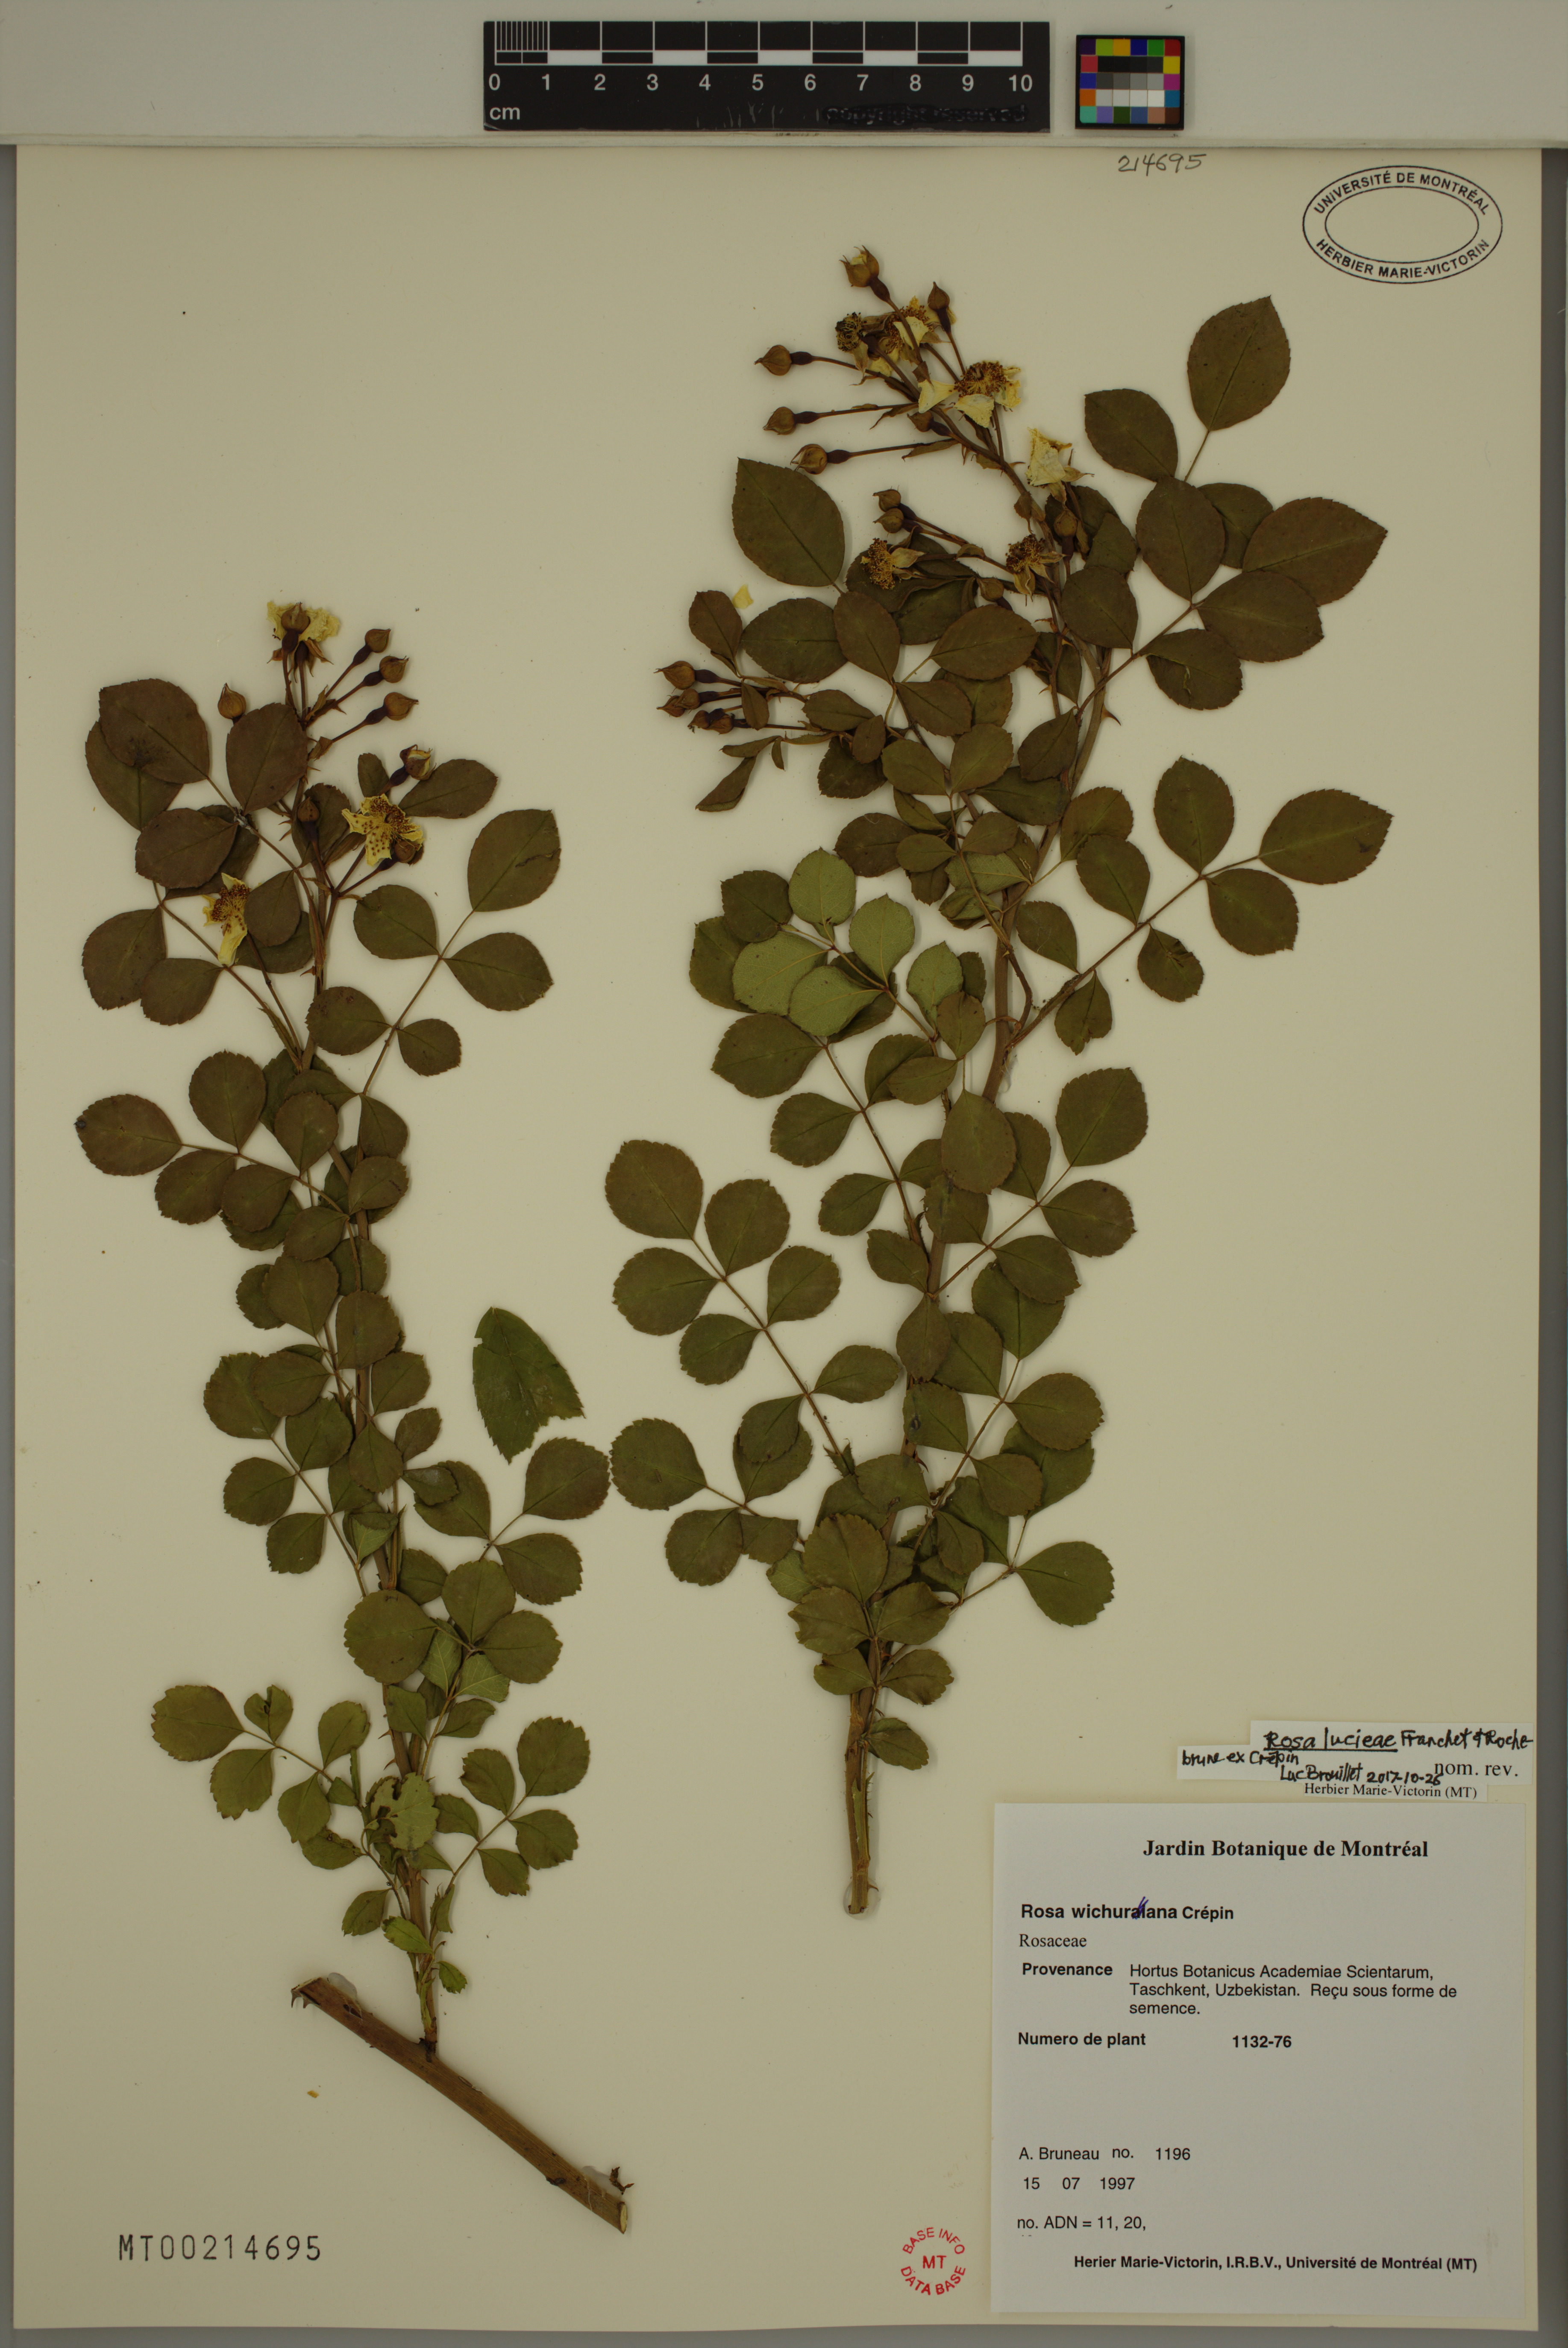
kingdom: Plantae
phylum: Tracheophyta
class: Magnoliopsida
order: Rosales
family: Rosaceae
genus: Rosa
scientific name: Rosa luciae
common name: Memorial rose
